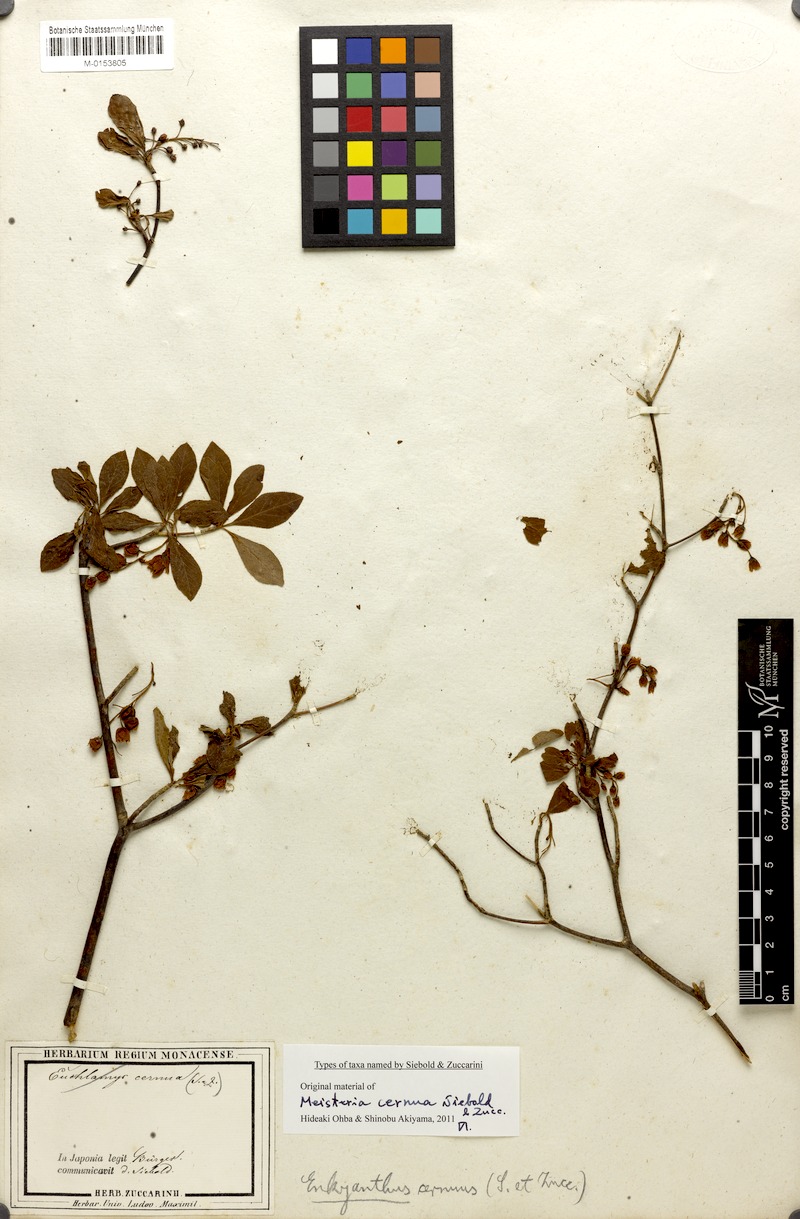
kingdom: Plantae
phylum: Tracheophyta
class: Magnoliopsida
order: Ericales
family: Ericaceae
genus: Enkianthus
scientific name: Enkianthus cernuus
